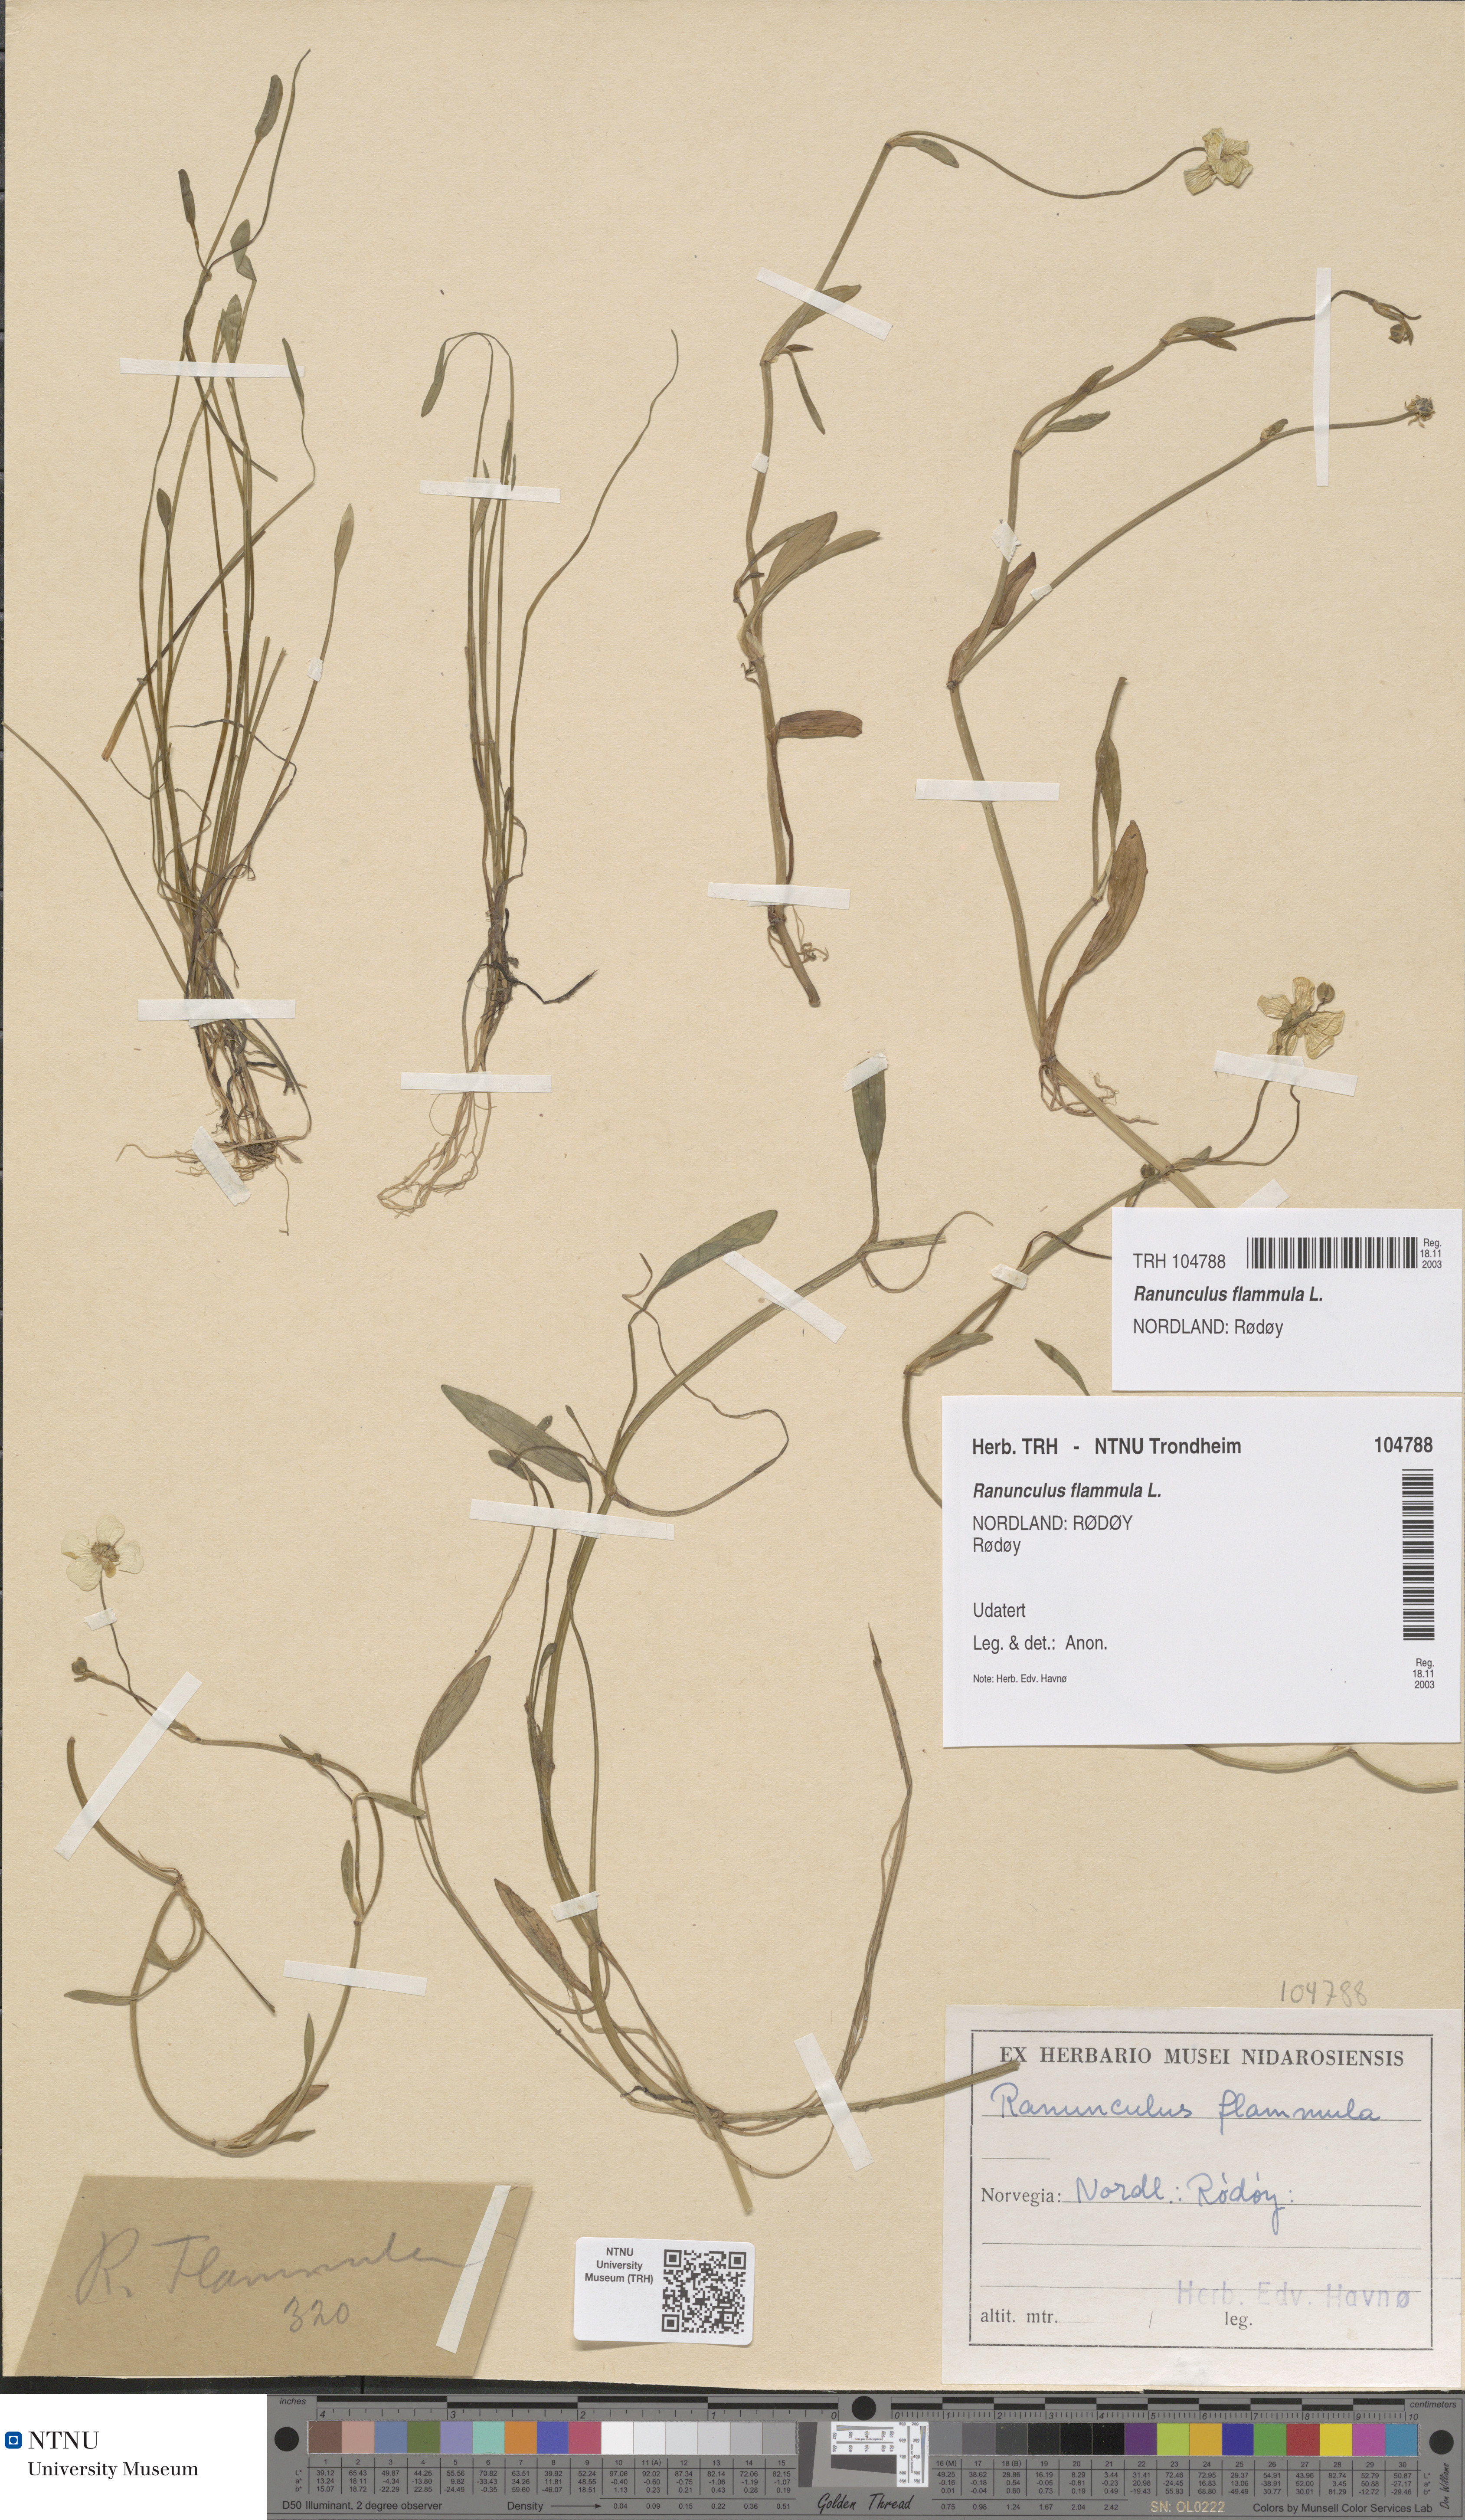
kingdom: Plantae
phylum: Tracheophyta
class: Magnoliopsida
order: Ranunculales
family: Ranunculaceae
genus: Ranunculus
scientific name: Ranunculus flammula
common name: Lesser spearwort
